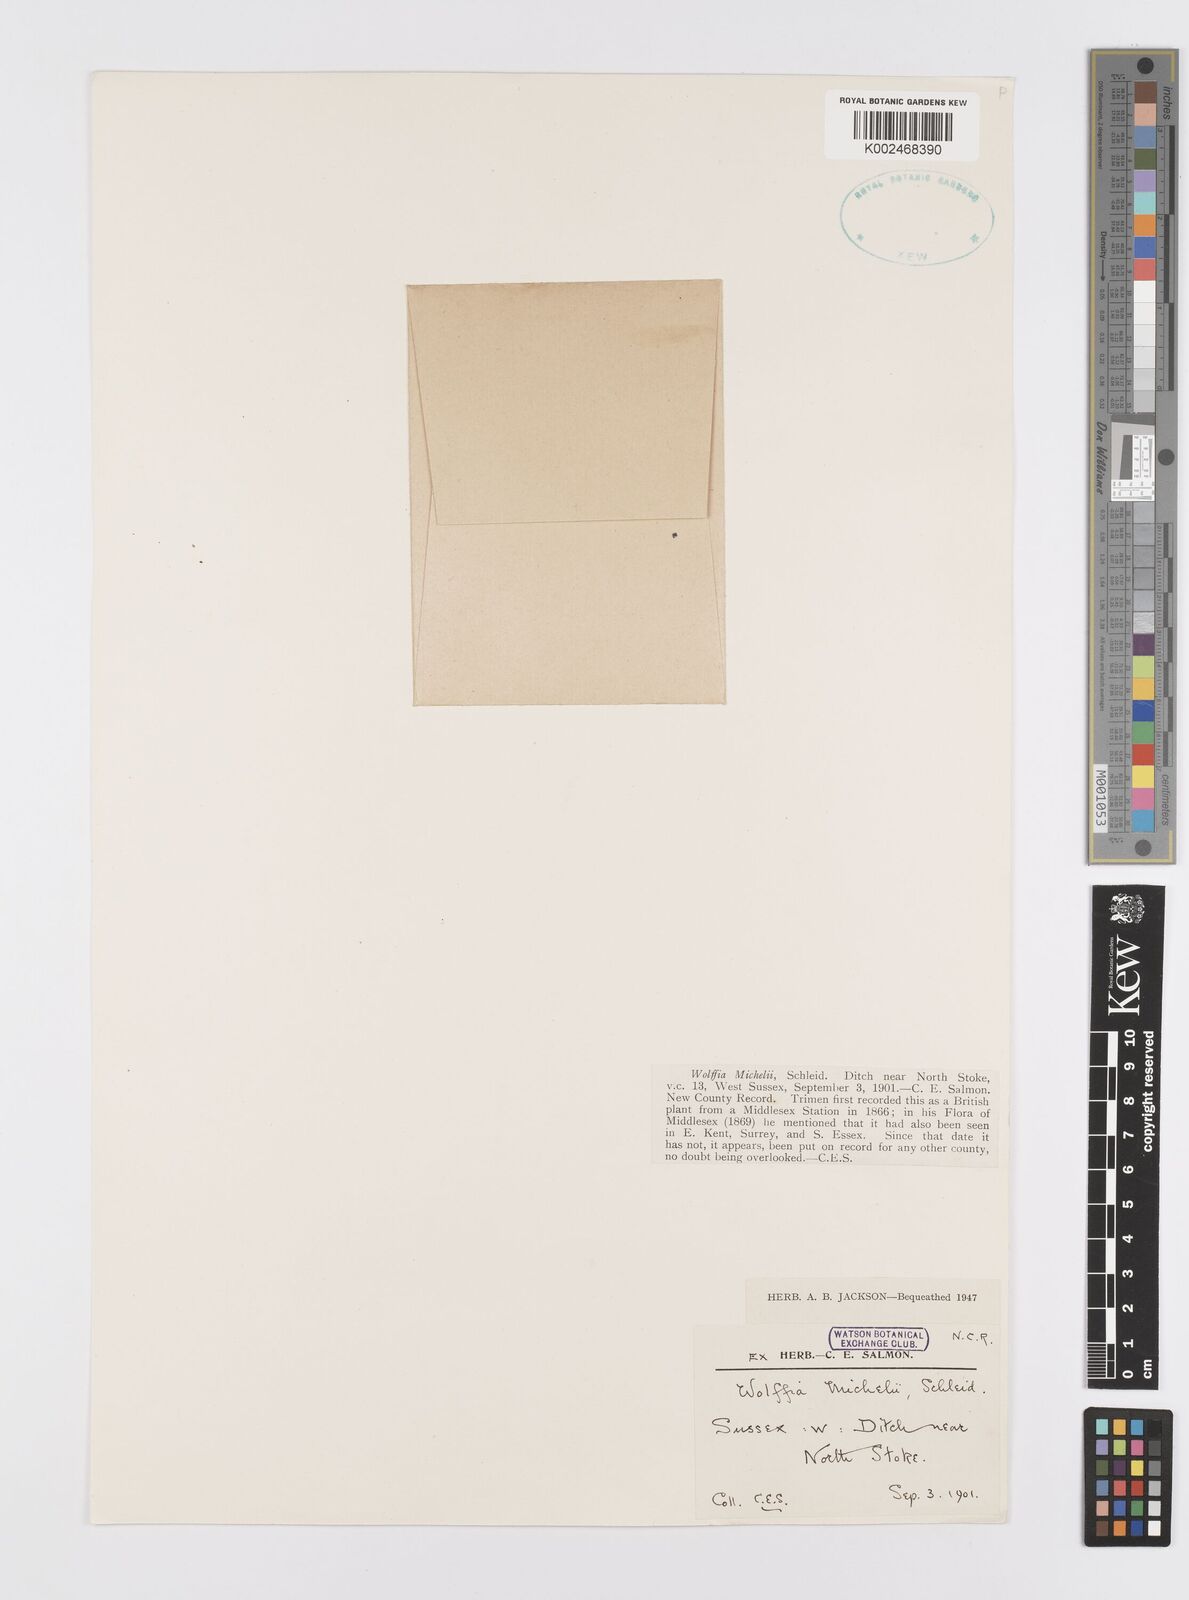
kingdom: Plantae
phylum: Tracheophyta
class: Liliopsida
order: Alismatales
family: Araceae
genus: Wolffia
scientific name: Wolffia arrhiza
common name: Rootless duckweed
